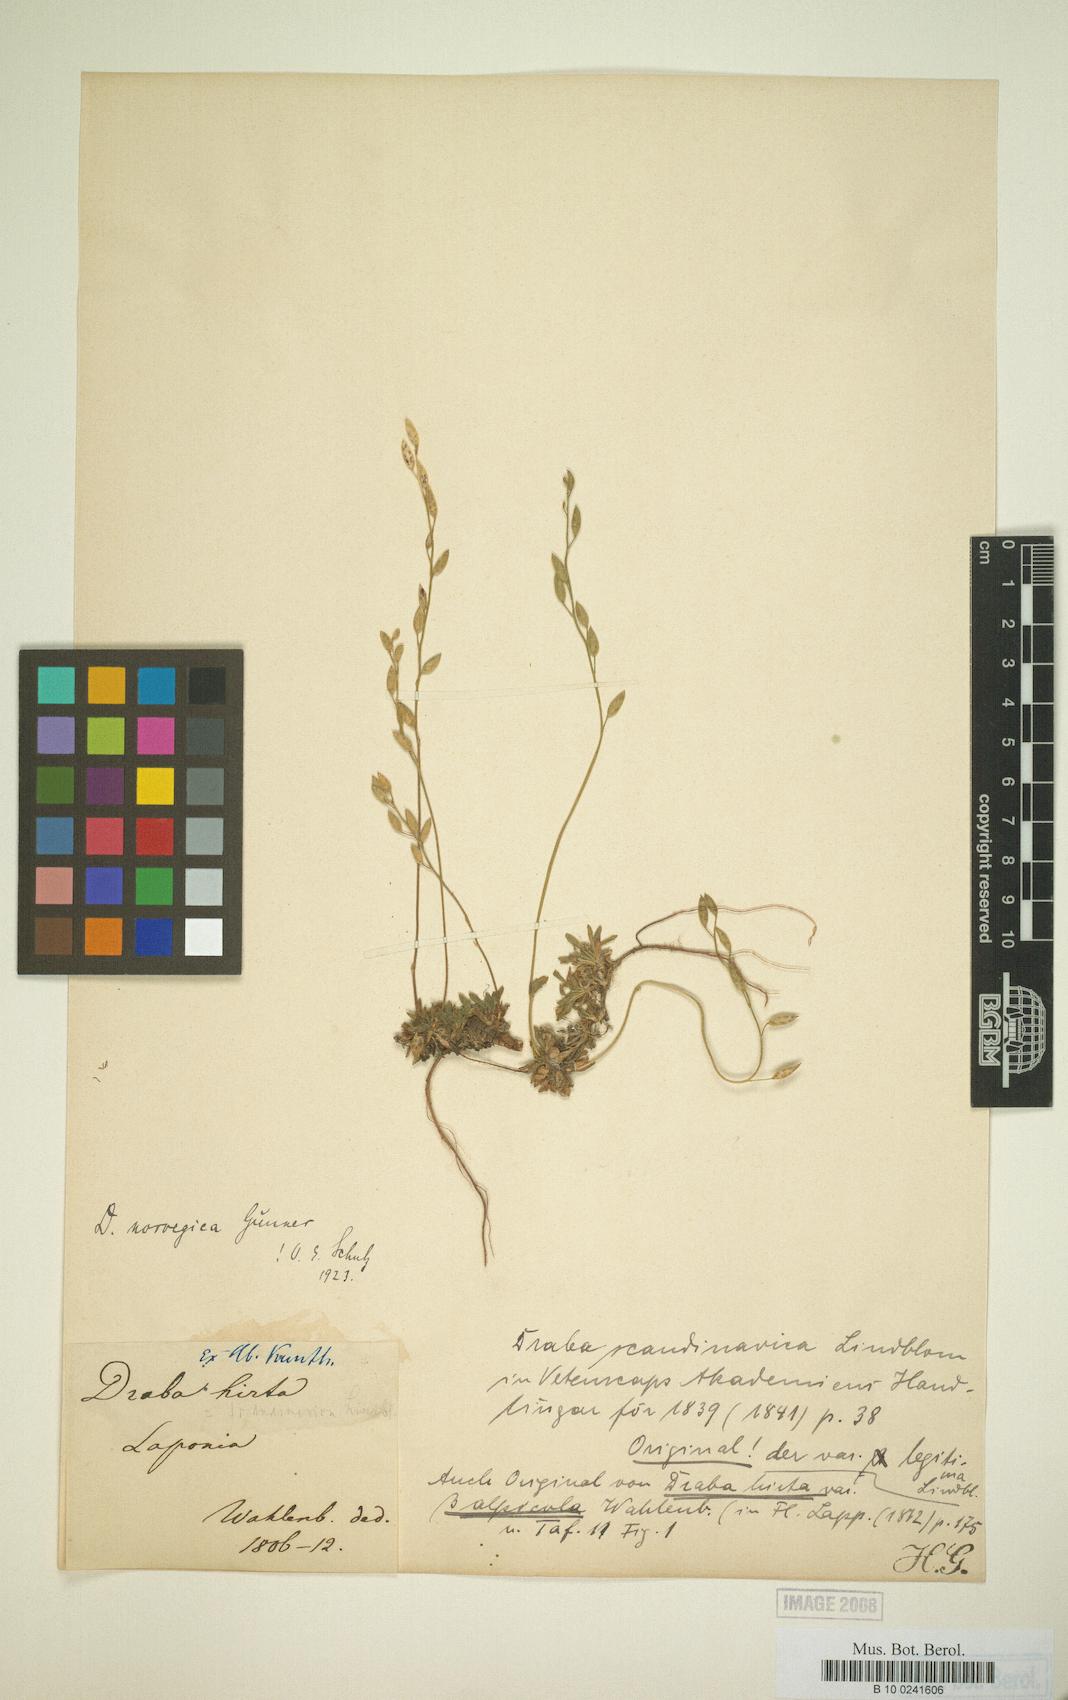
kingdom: Plantae
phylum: Tracheophyta
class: Magnoliopsida
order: Brassicales
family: Brassicaceae
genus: Draba
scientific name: Draba norvegica
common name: Rock whitlowgrass
